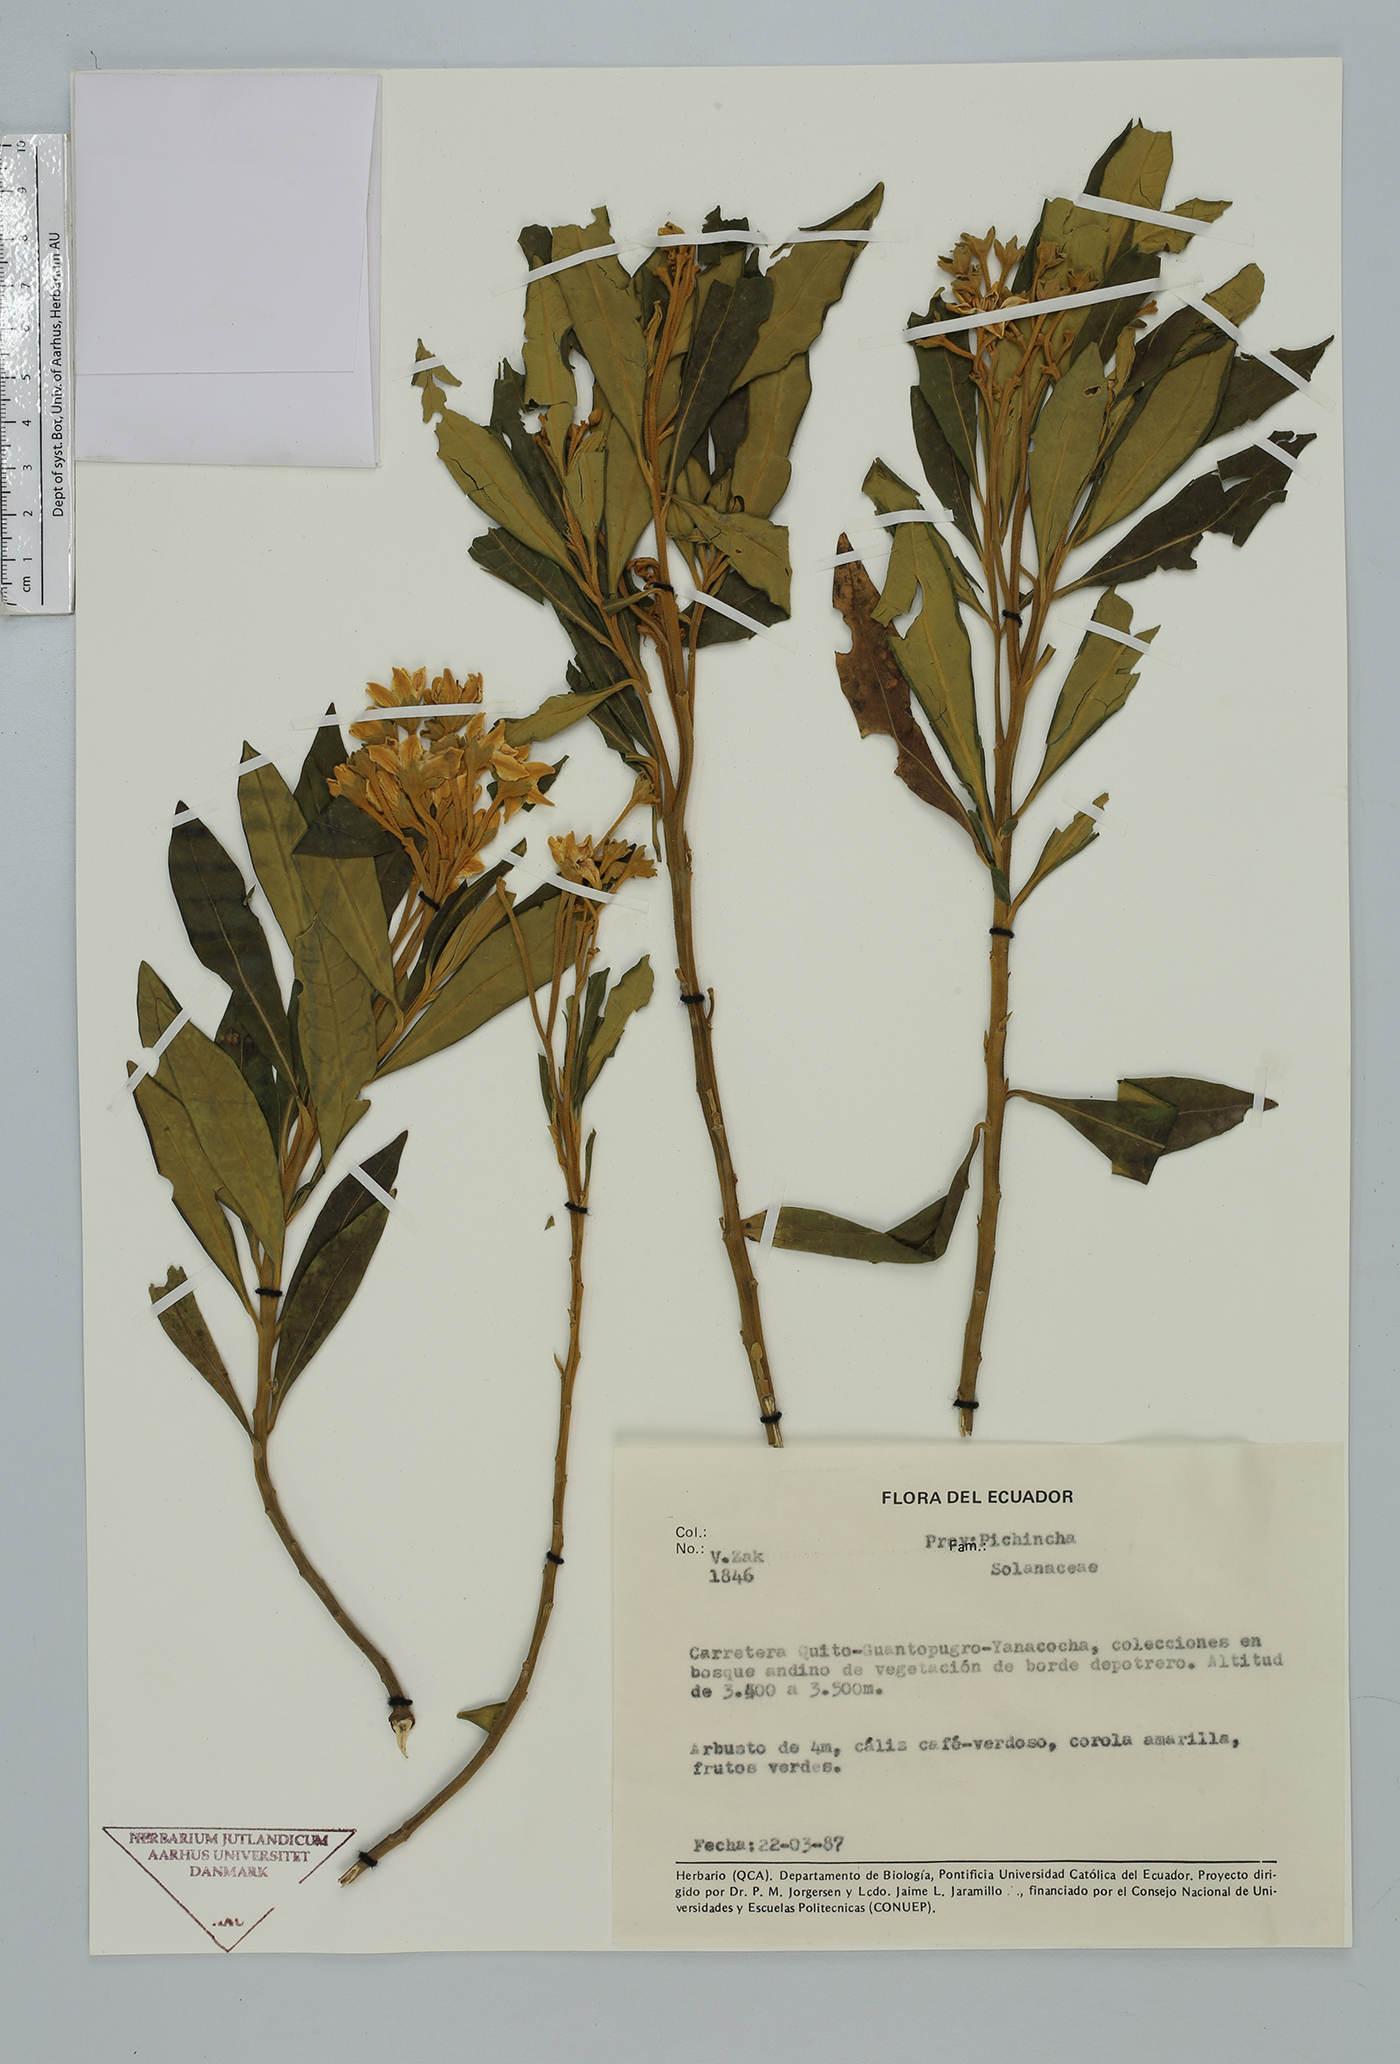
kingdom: Plantae
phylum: Tracheophyta
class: Magnoliopsida
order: Solanales
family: Solanaceae
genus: Solanum
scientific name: Solanum
